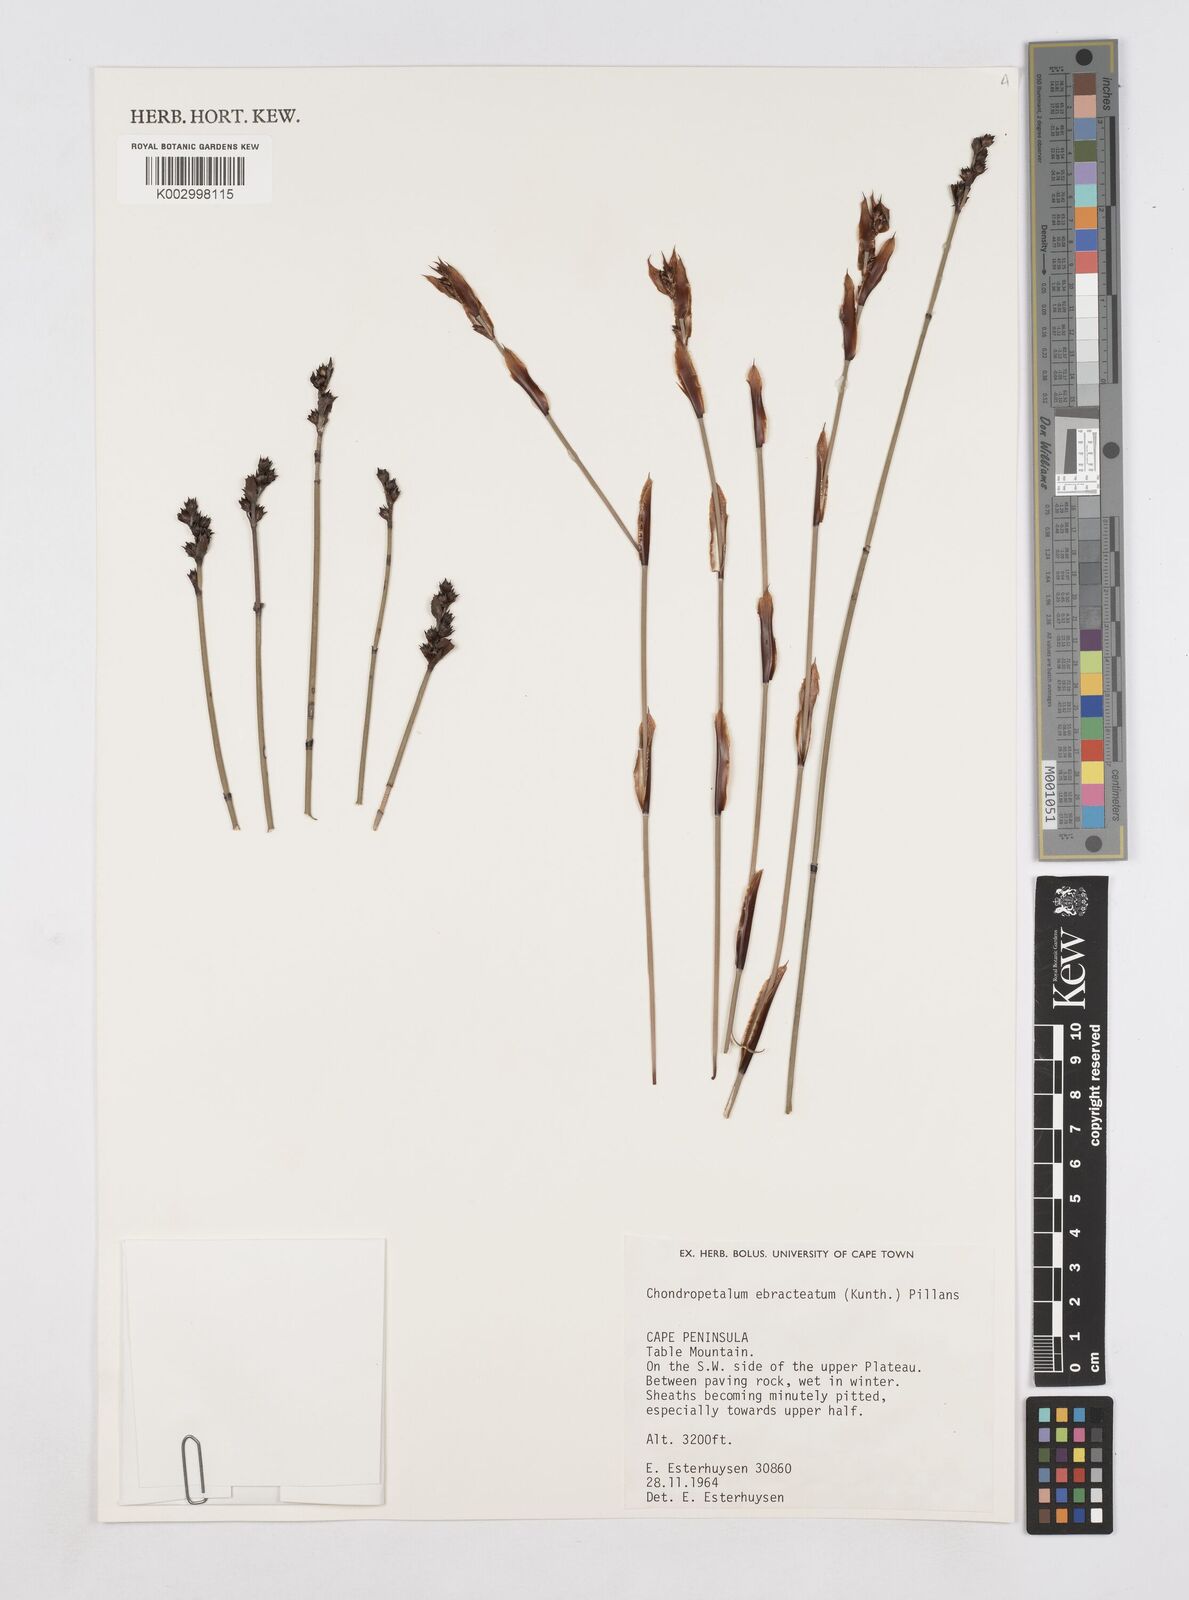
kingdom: Plantae
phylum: Tracheophyta
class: Liliopsida
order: Poales
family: Restionaceae
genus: Elegia
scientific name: Elegia ebracteata
